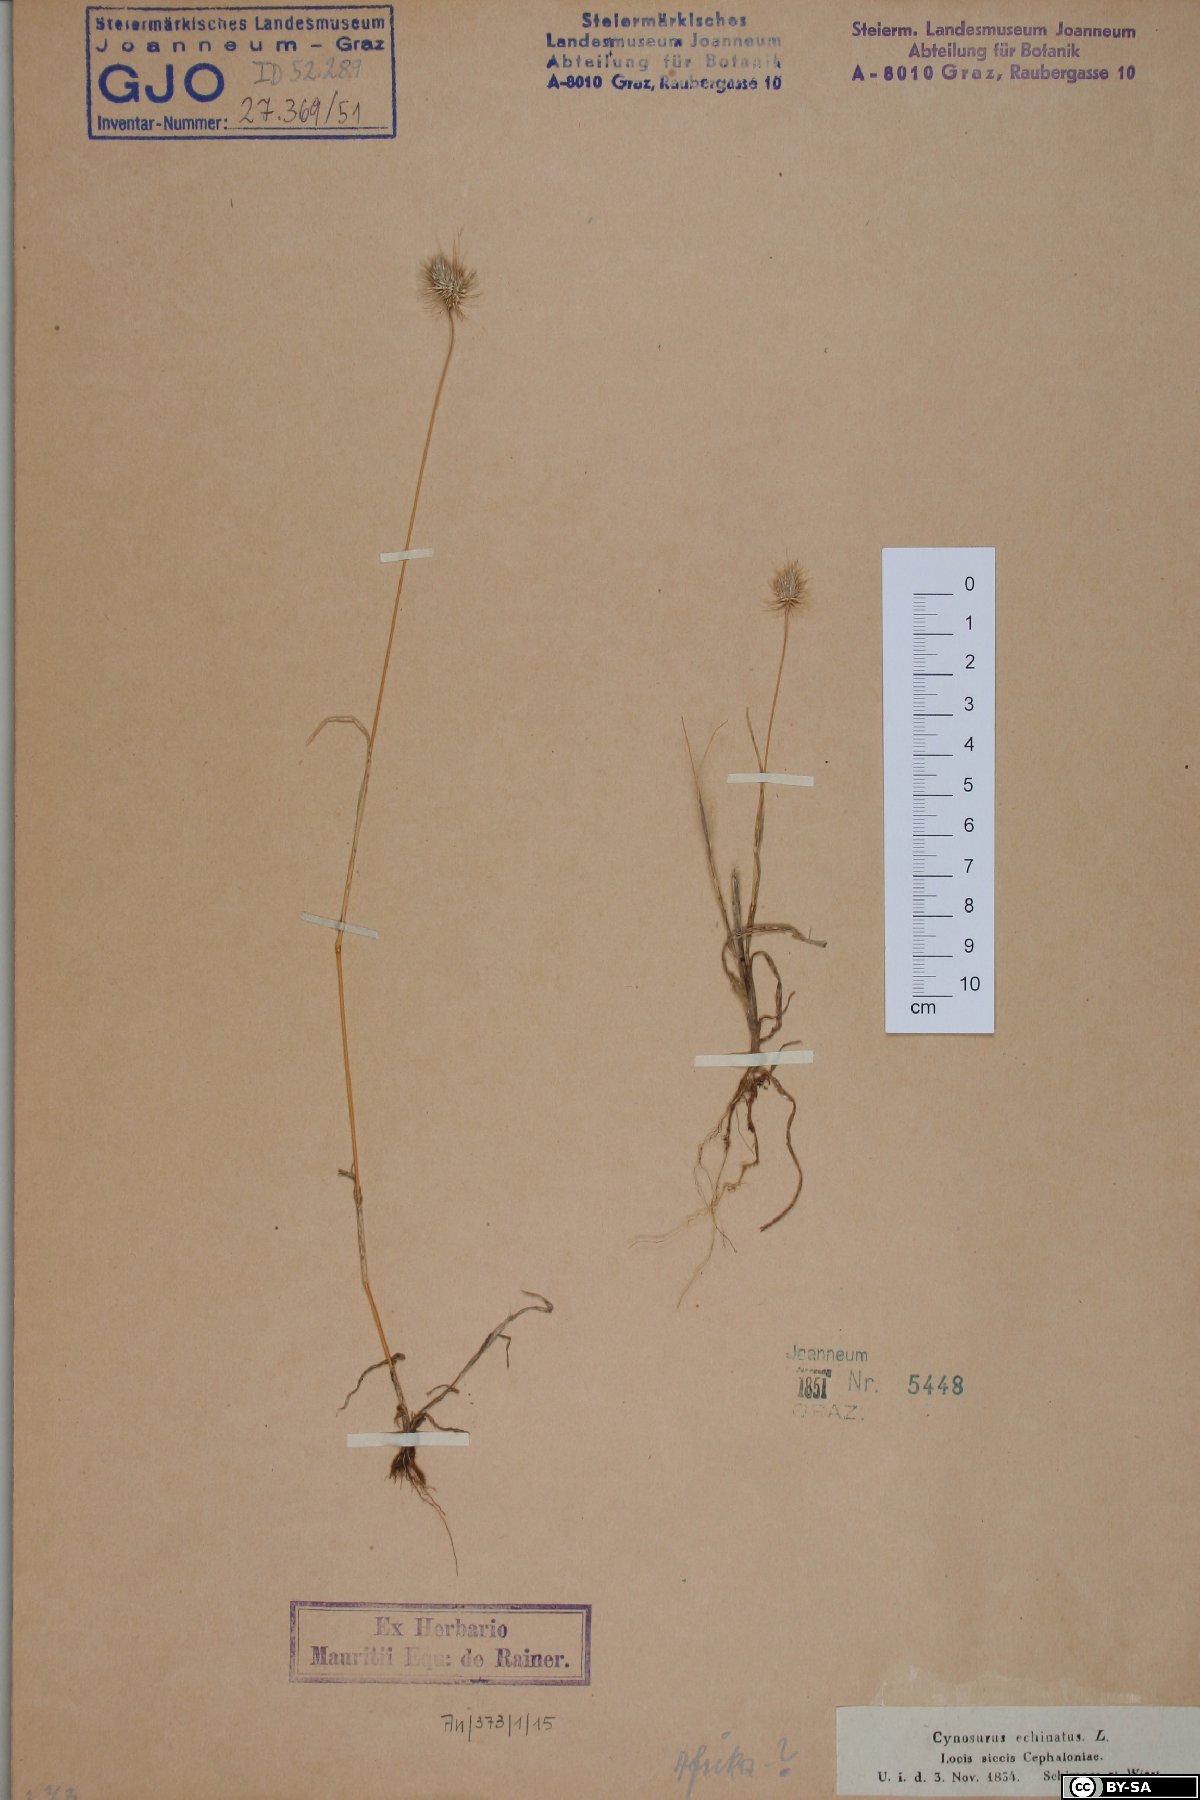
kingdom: Plantae
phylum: Tracheophyta
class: Liliopsida
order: Poales
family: Poaceae
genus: Cynosurus
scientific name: Cynosurus echinatus
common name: Rough dog's-tail
